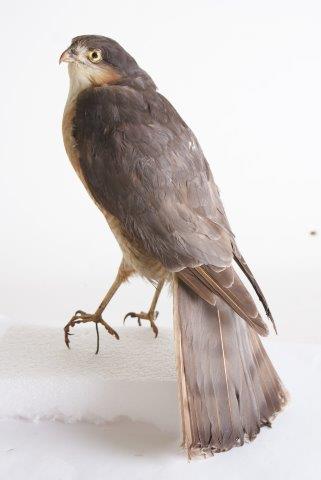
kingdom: Animalia
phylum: Chordata
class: Aves
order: Accipitriformes
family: Accipitridae
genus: Accipiter
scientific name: Accipiter nisus
